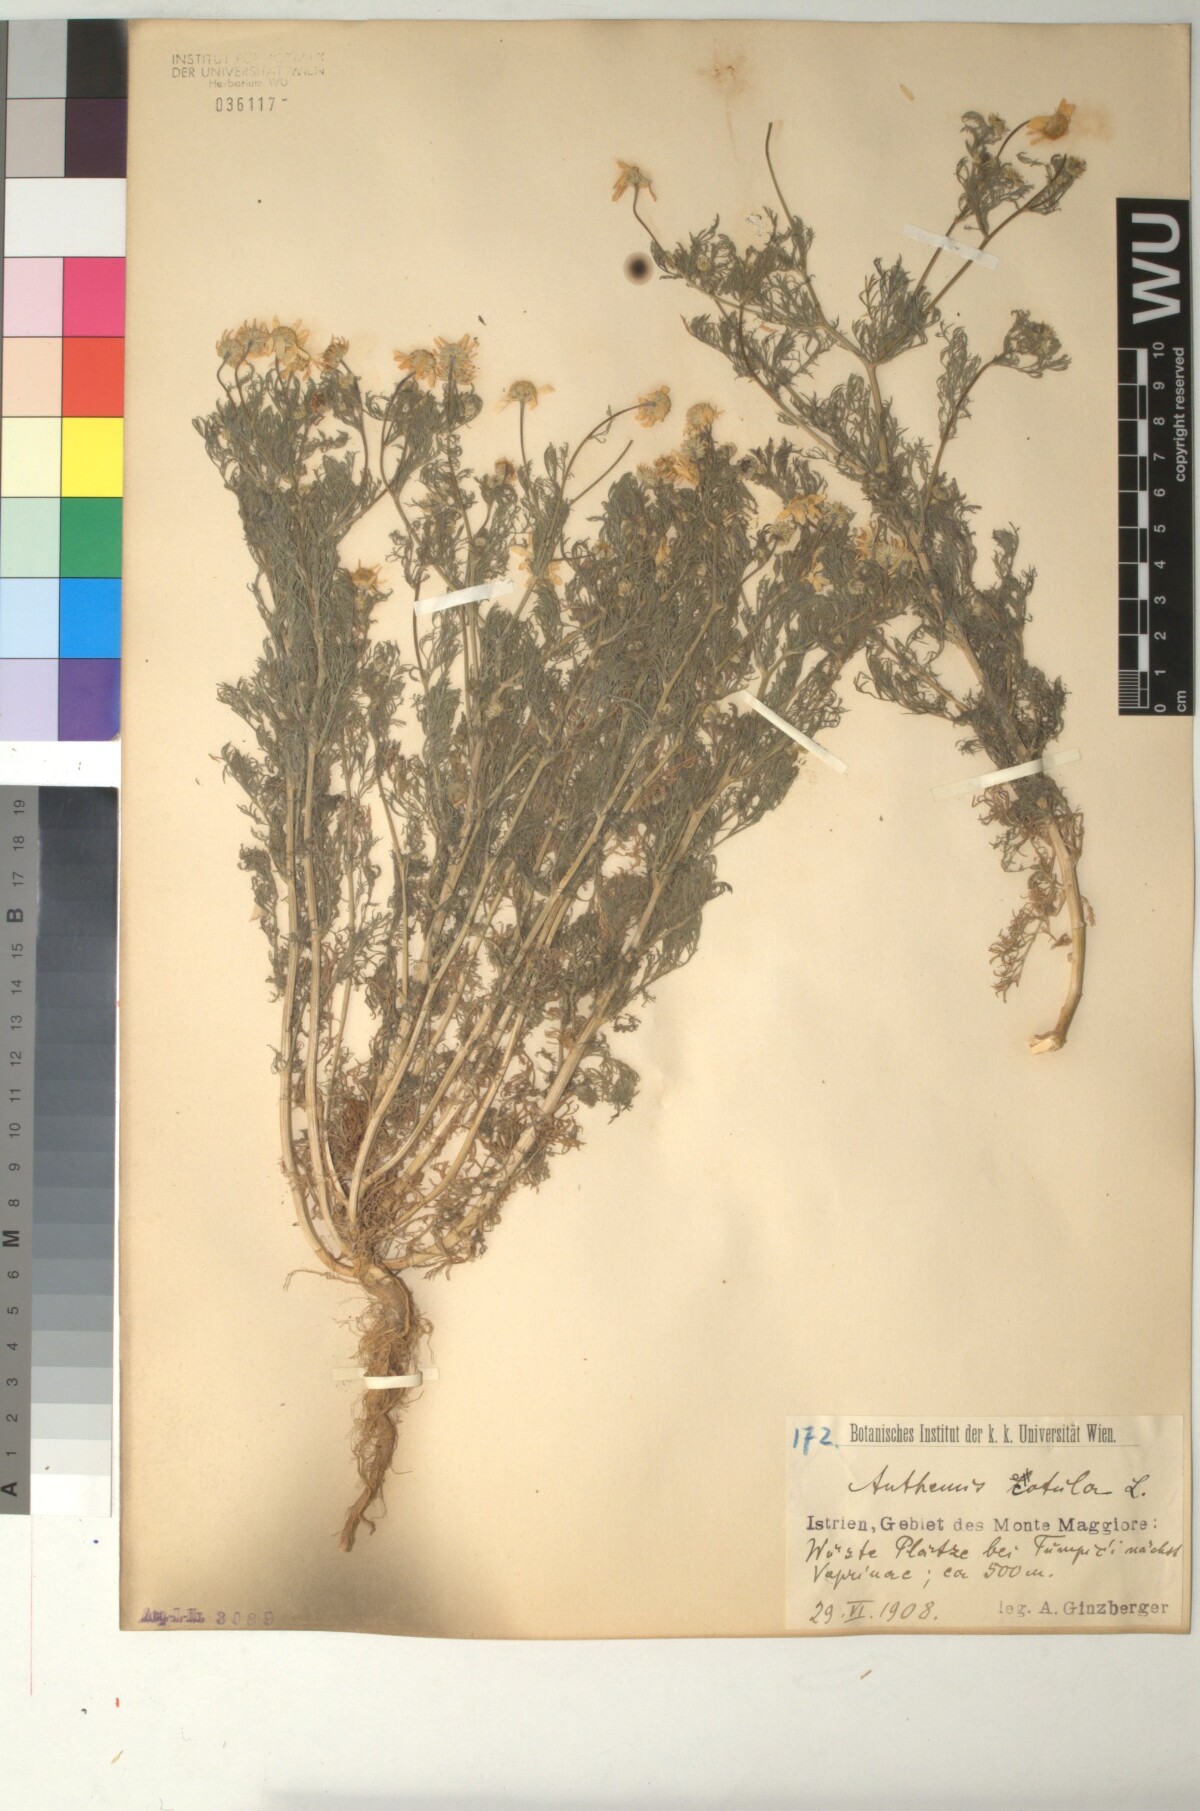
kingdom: Plantae
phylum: Tracheophyta
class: Magnoliopsida
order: Asterales
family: Asteraceae
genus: Anthemis
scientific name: Anthemis cotula
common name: Stinking chamomile
